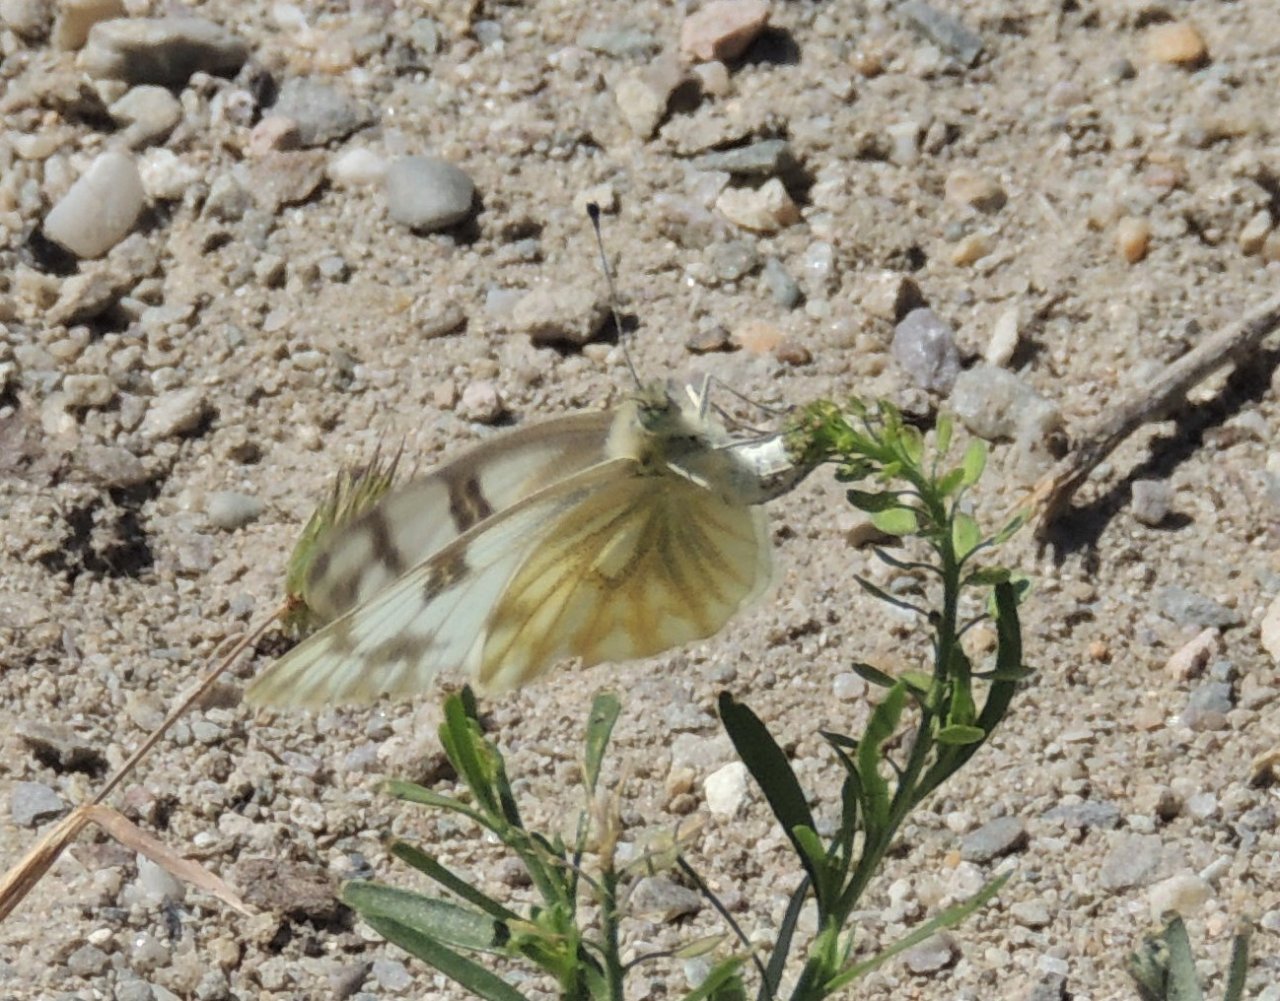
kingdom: Animalia
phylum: Arthropoda
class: Insecta
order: Lepidoptera
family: Pieridae
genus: Pontia
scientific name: Pontia occidentalis
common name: Western White
